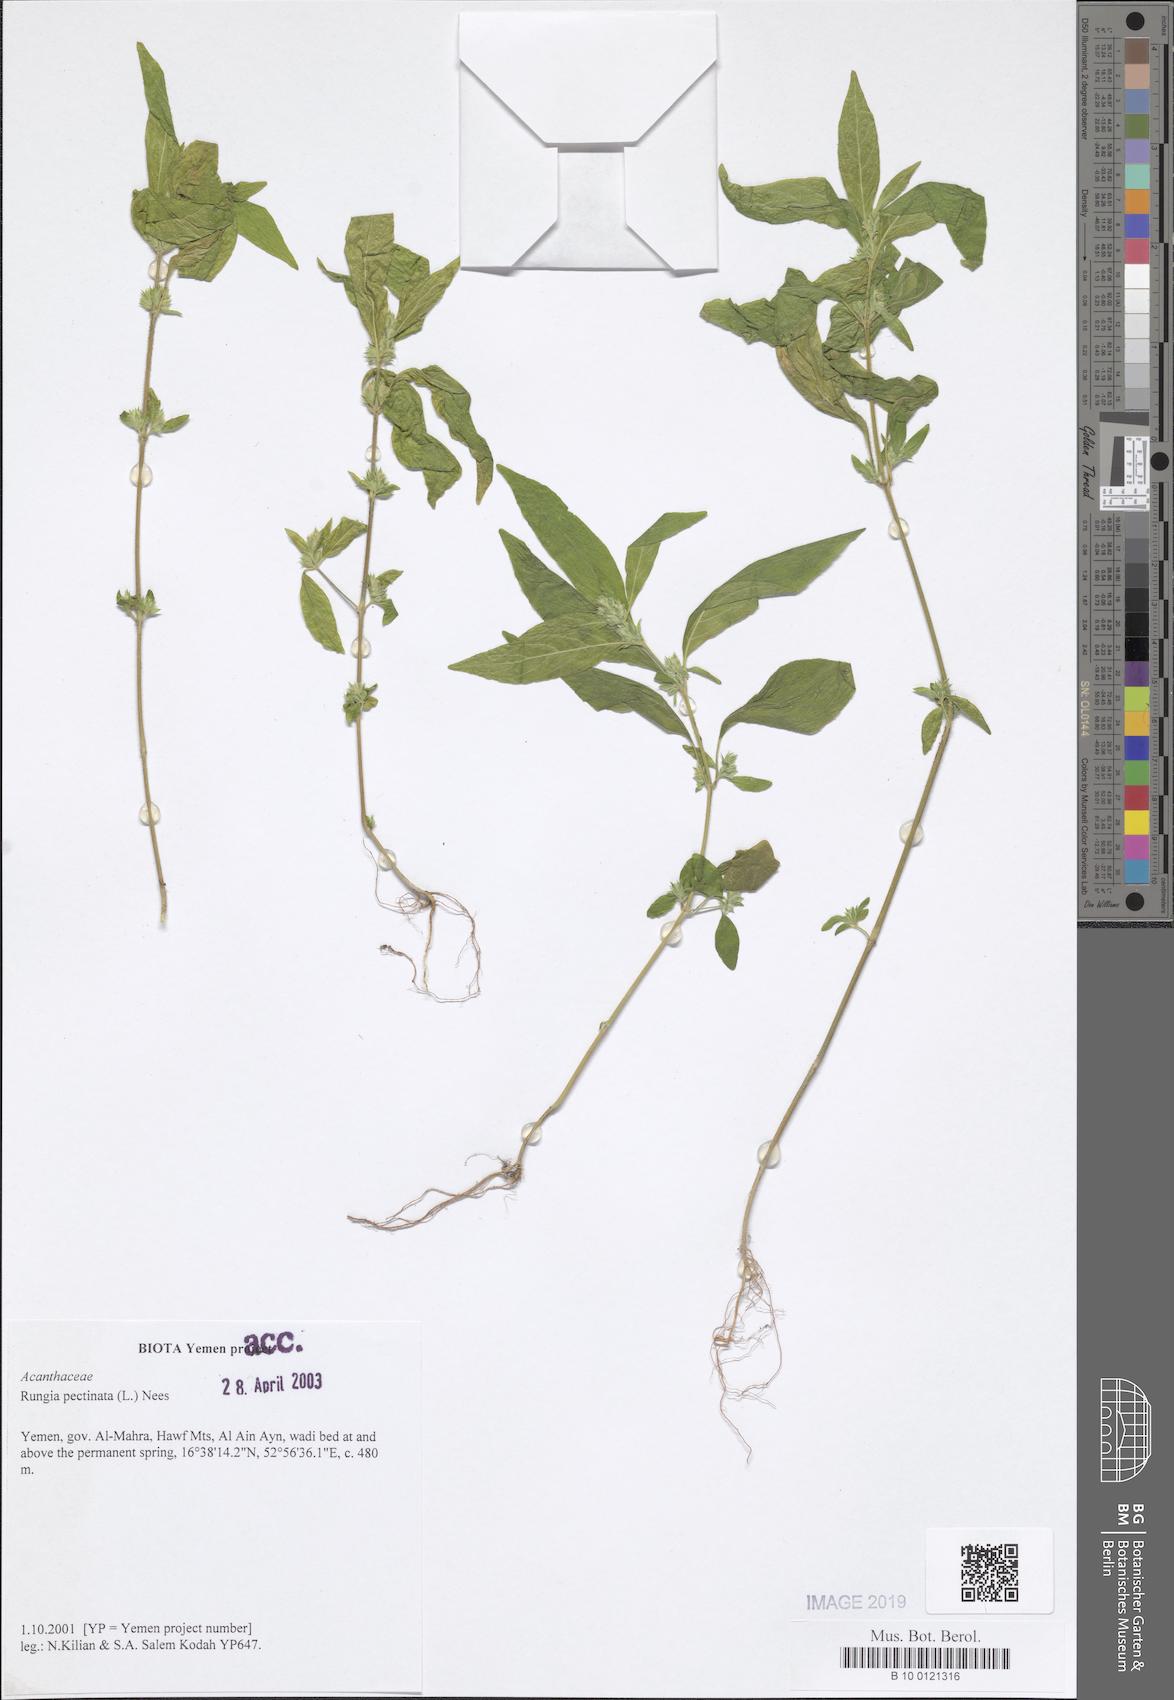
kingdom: Plantae
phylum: Tracheophyta
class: Magnoliopsida
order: Lamiales
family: Acanthaceae
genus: Rungia
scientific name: Rungia pectinata
